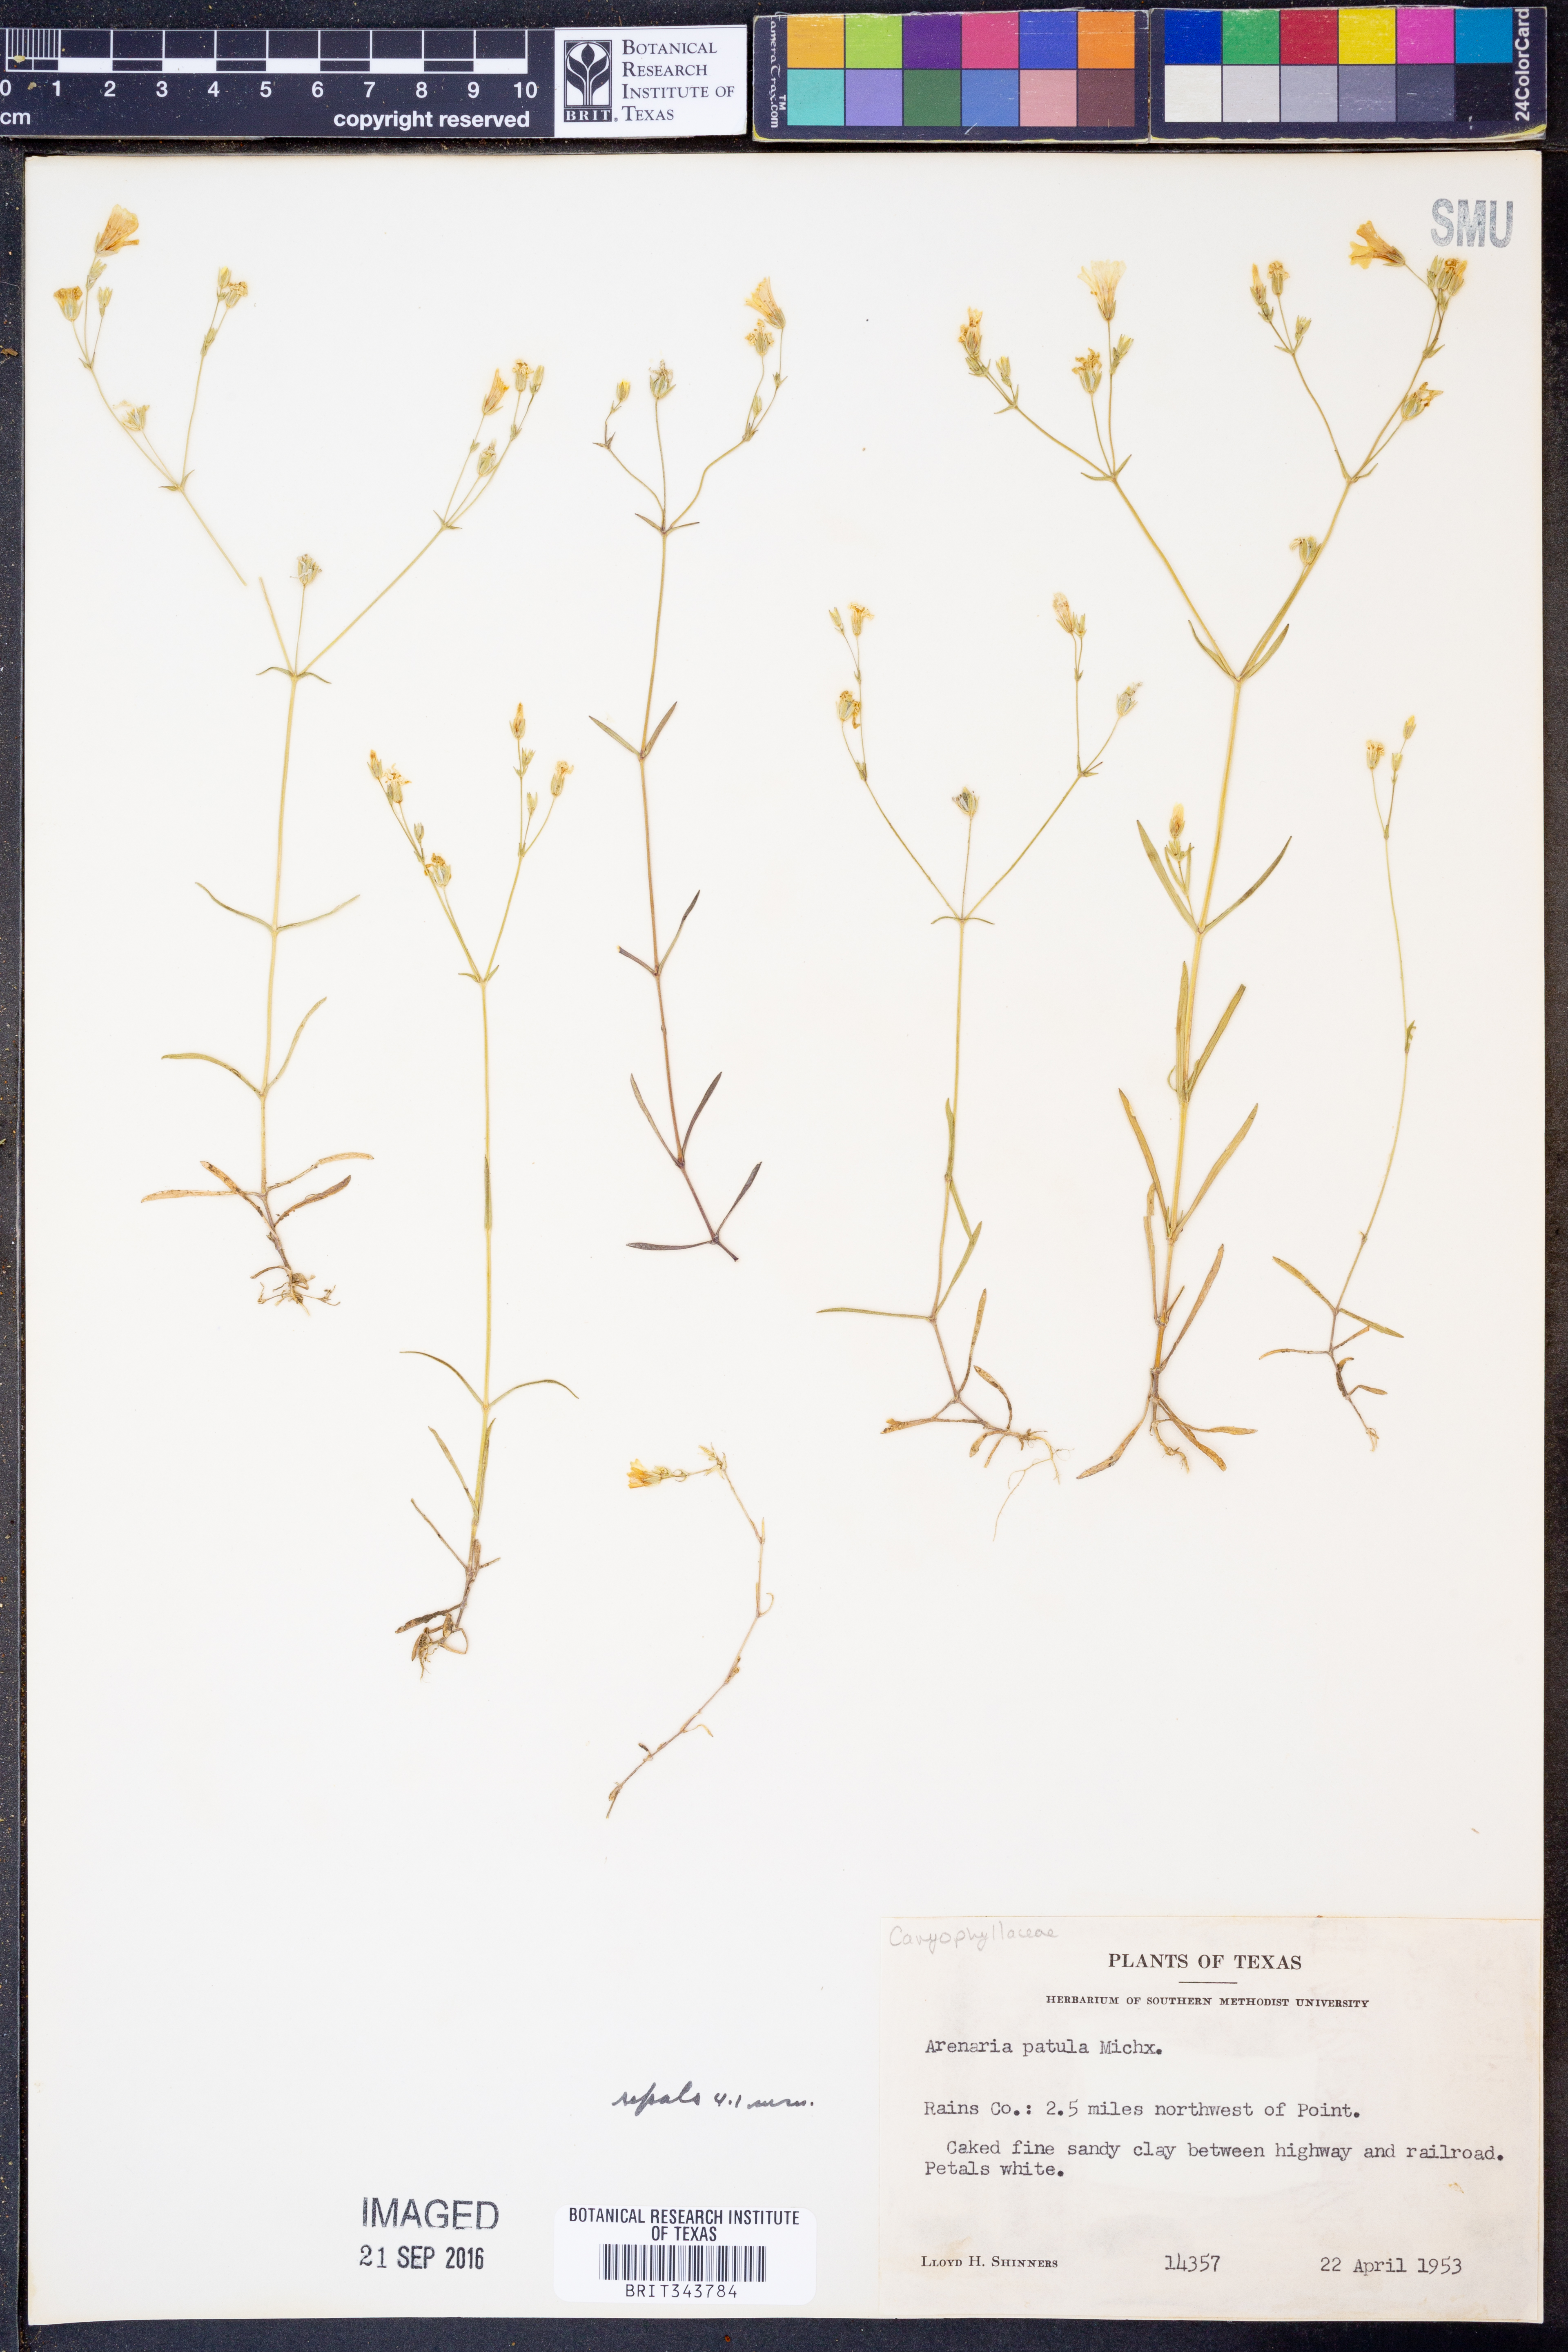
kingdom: Plantae
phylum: Tracheophyta
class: Magnoliopsida
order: Caryophyllales
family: Caryophyllaceae
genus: Mononeuria
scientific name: Mononeuria patula
